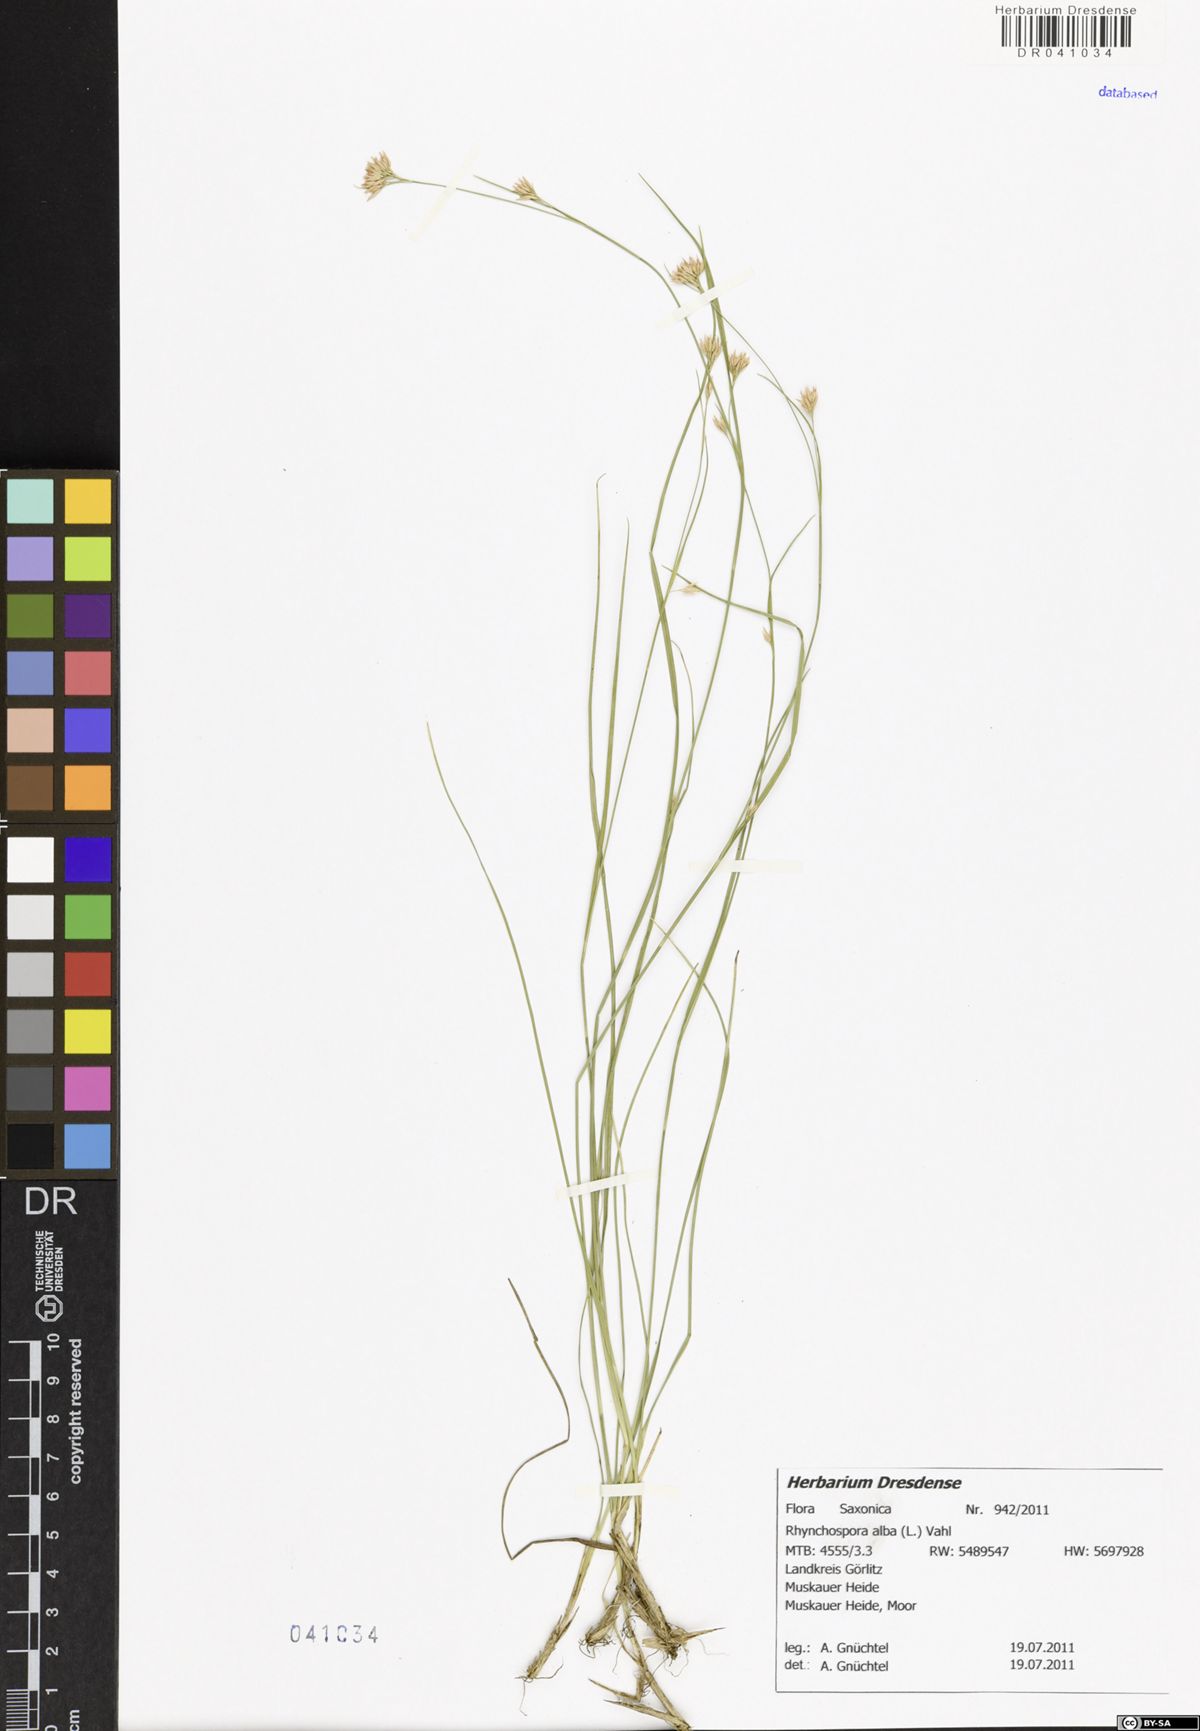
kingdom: Plantae
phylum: Tracheophyta
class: Liliopsida
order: Poales
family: Cyperaceae
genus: Rhynchospora
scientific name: Rhynchospora alba
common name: White beak-sedge
